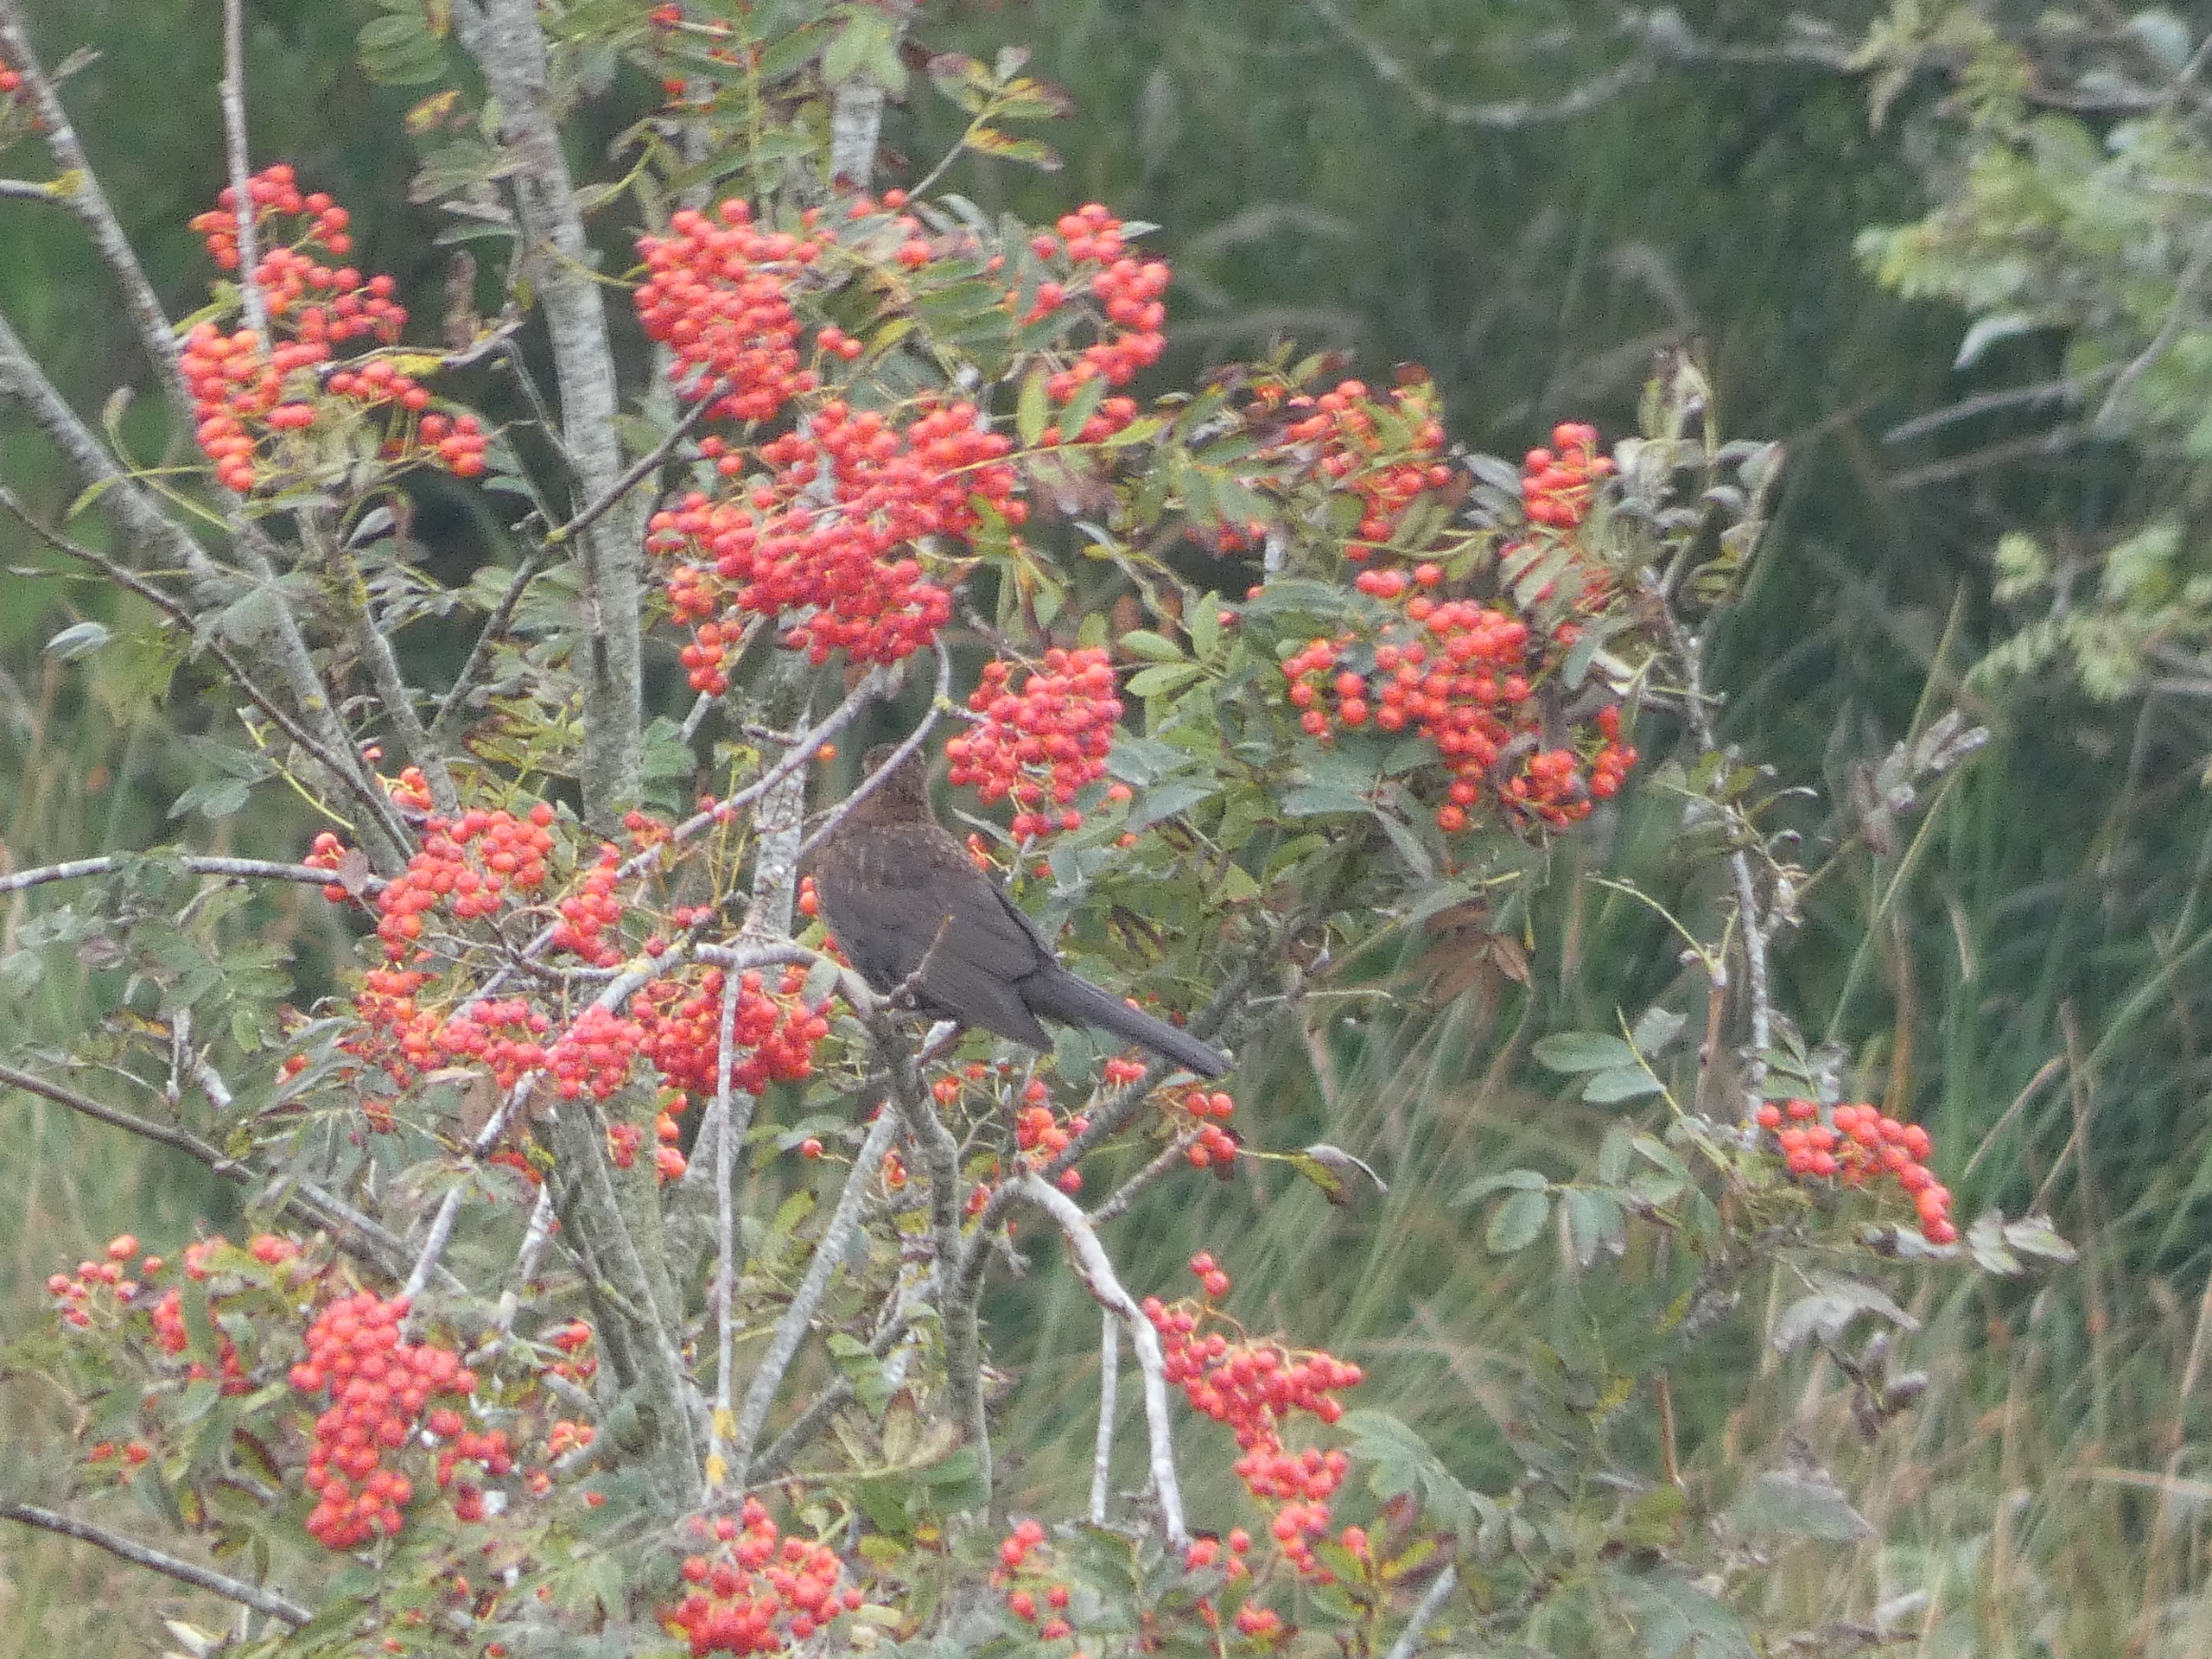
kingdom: Animalia
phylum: Chordata
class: Aves
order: Passeriformes
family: Turdidae
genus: Turdus
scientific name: Turdus merula
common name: Solsort
